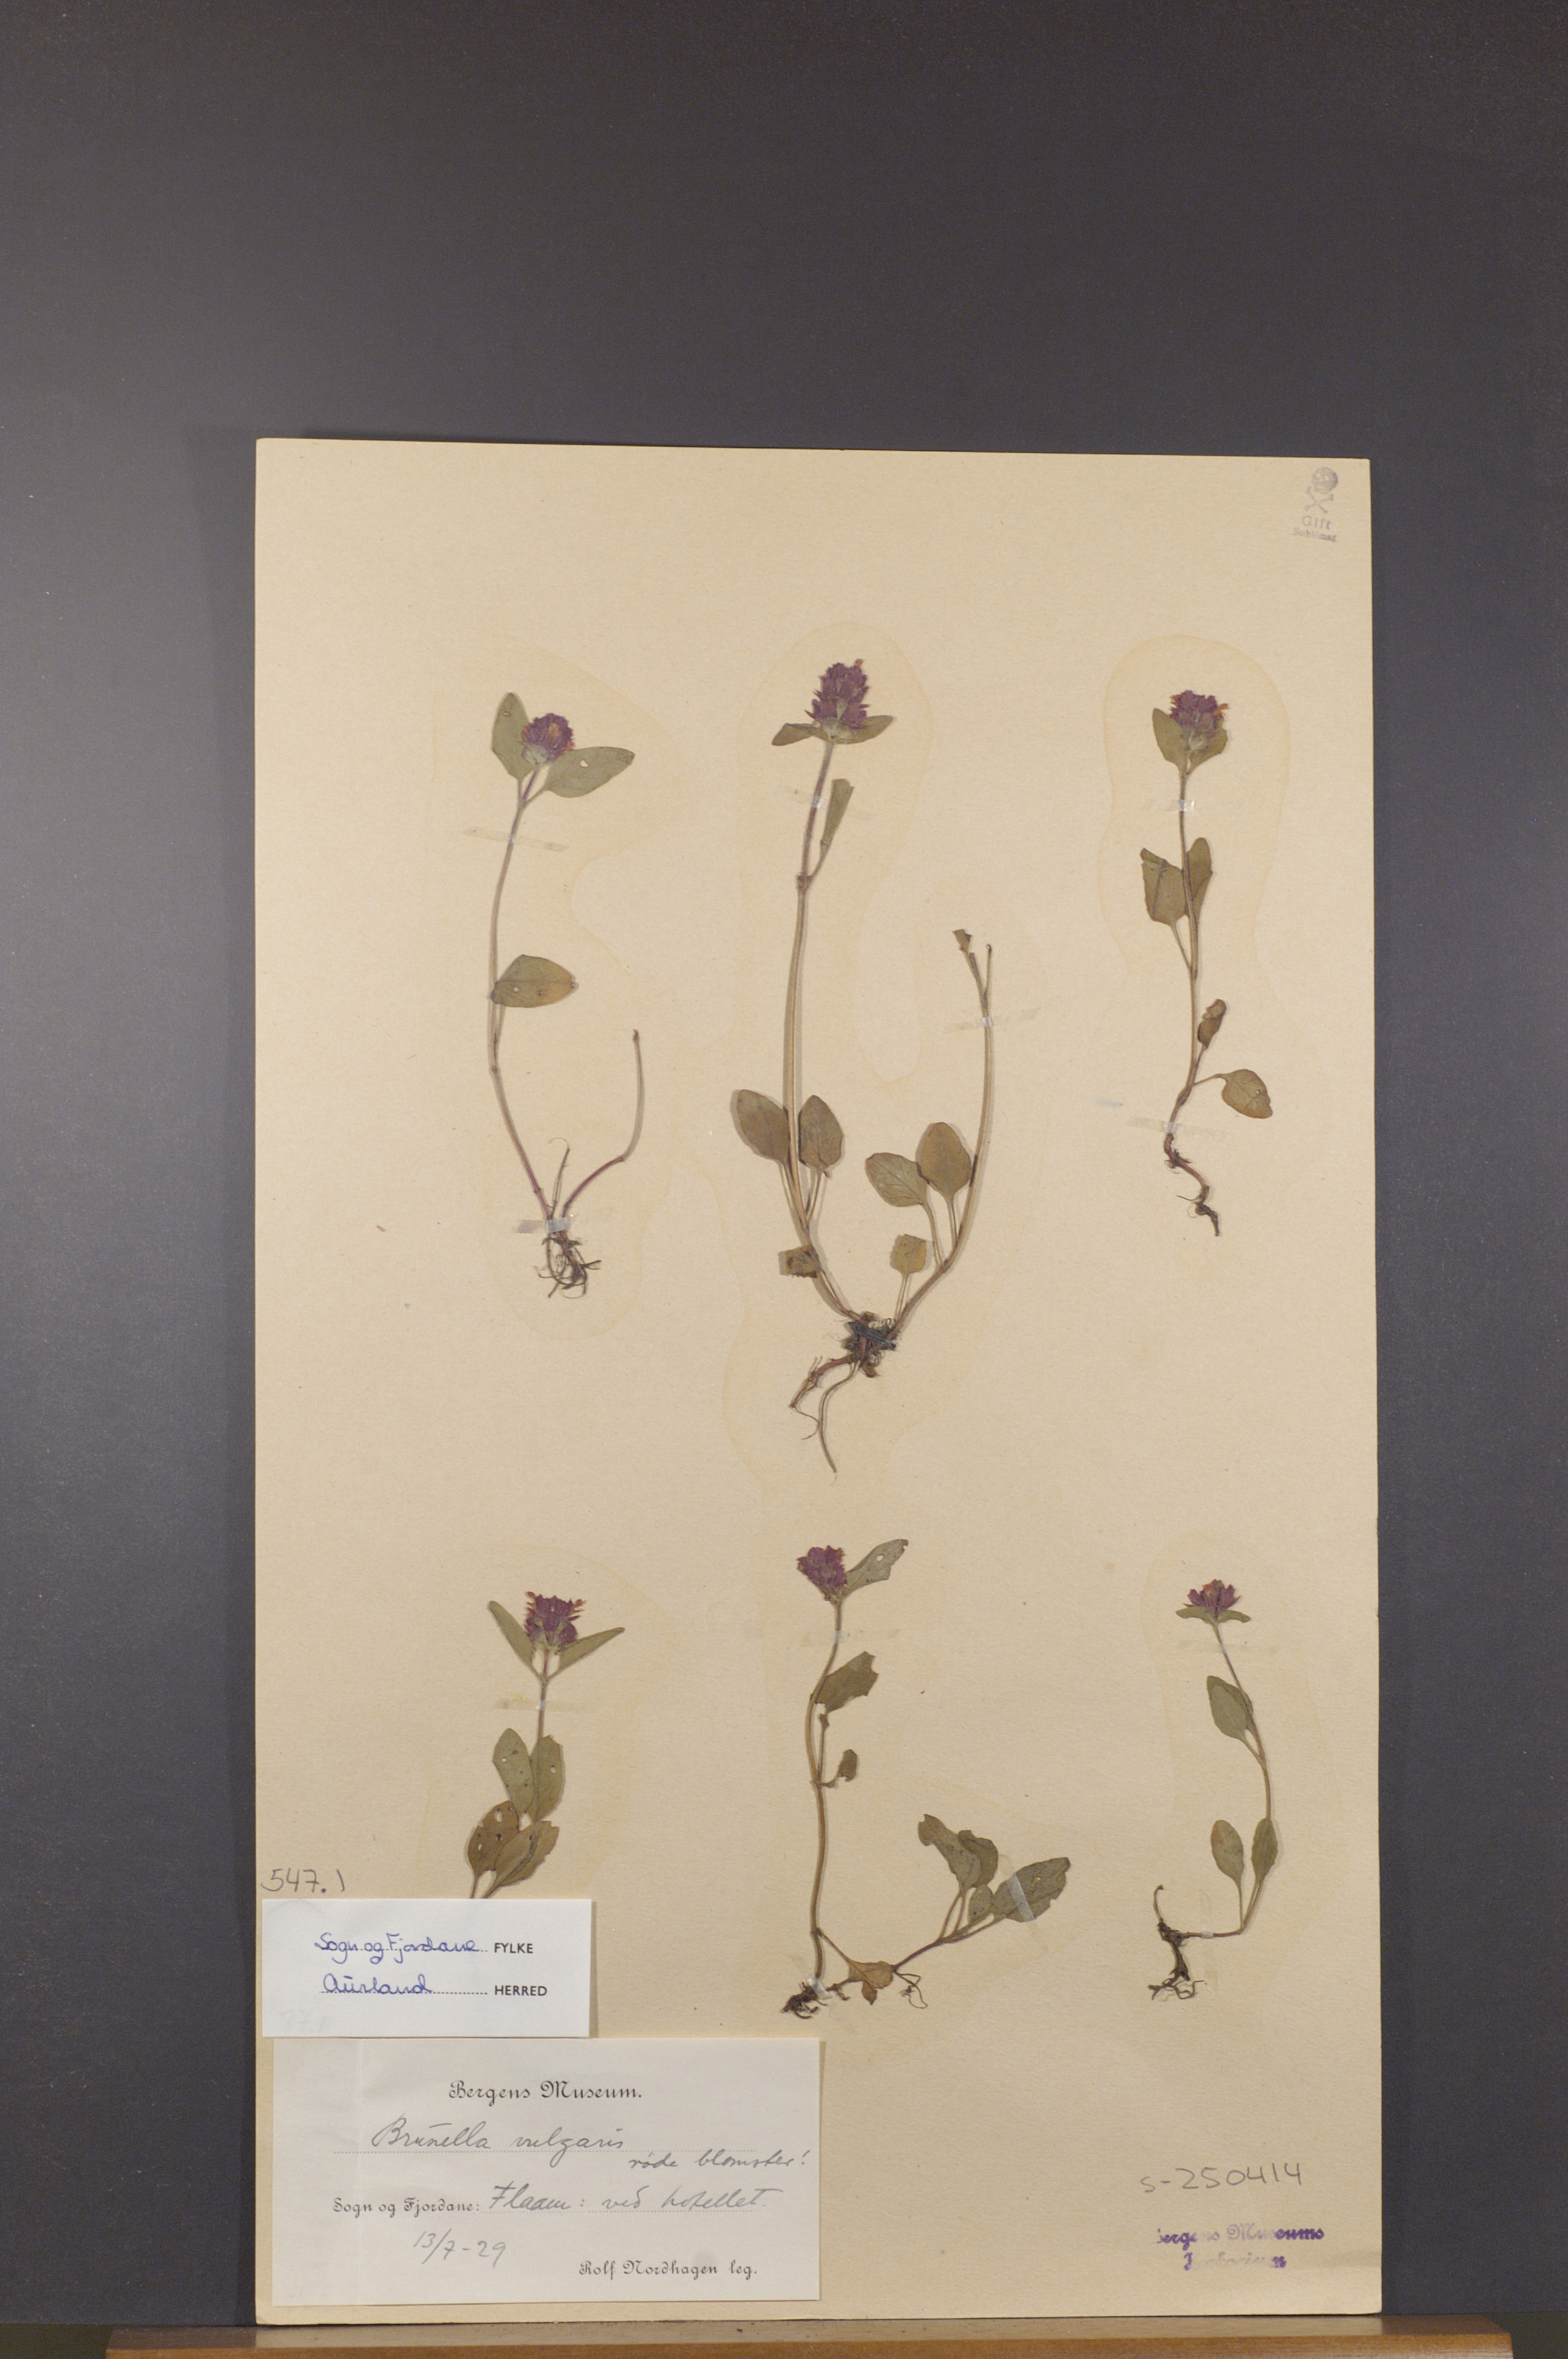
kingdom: Plantae
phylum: Tracheophyta
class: Magnoliopsida
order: Lamiales
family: Lamiaceae
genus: Prunella
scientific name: Prunella vulgaris
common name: Heal-all
